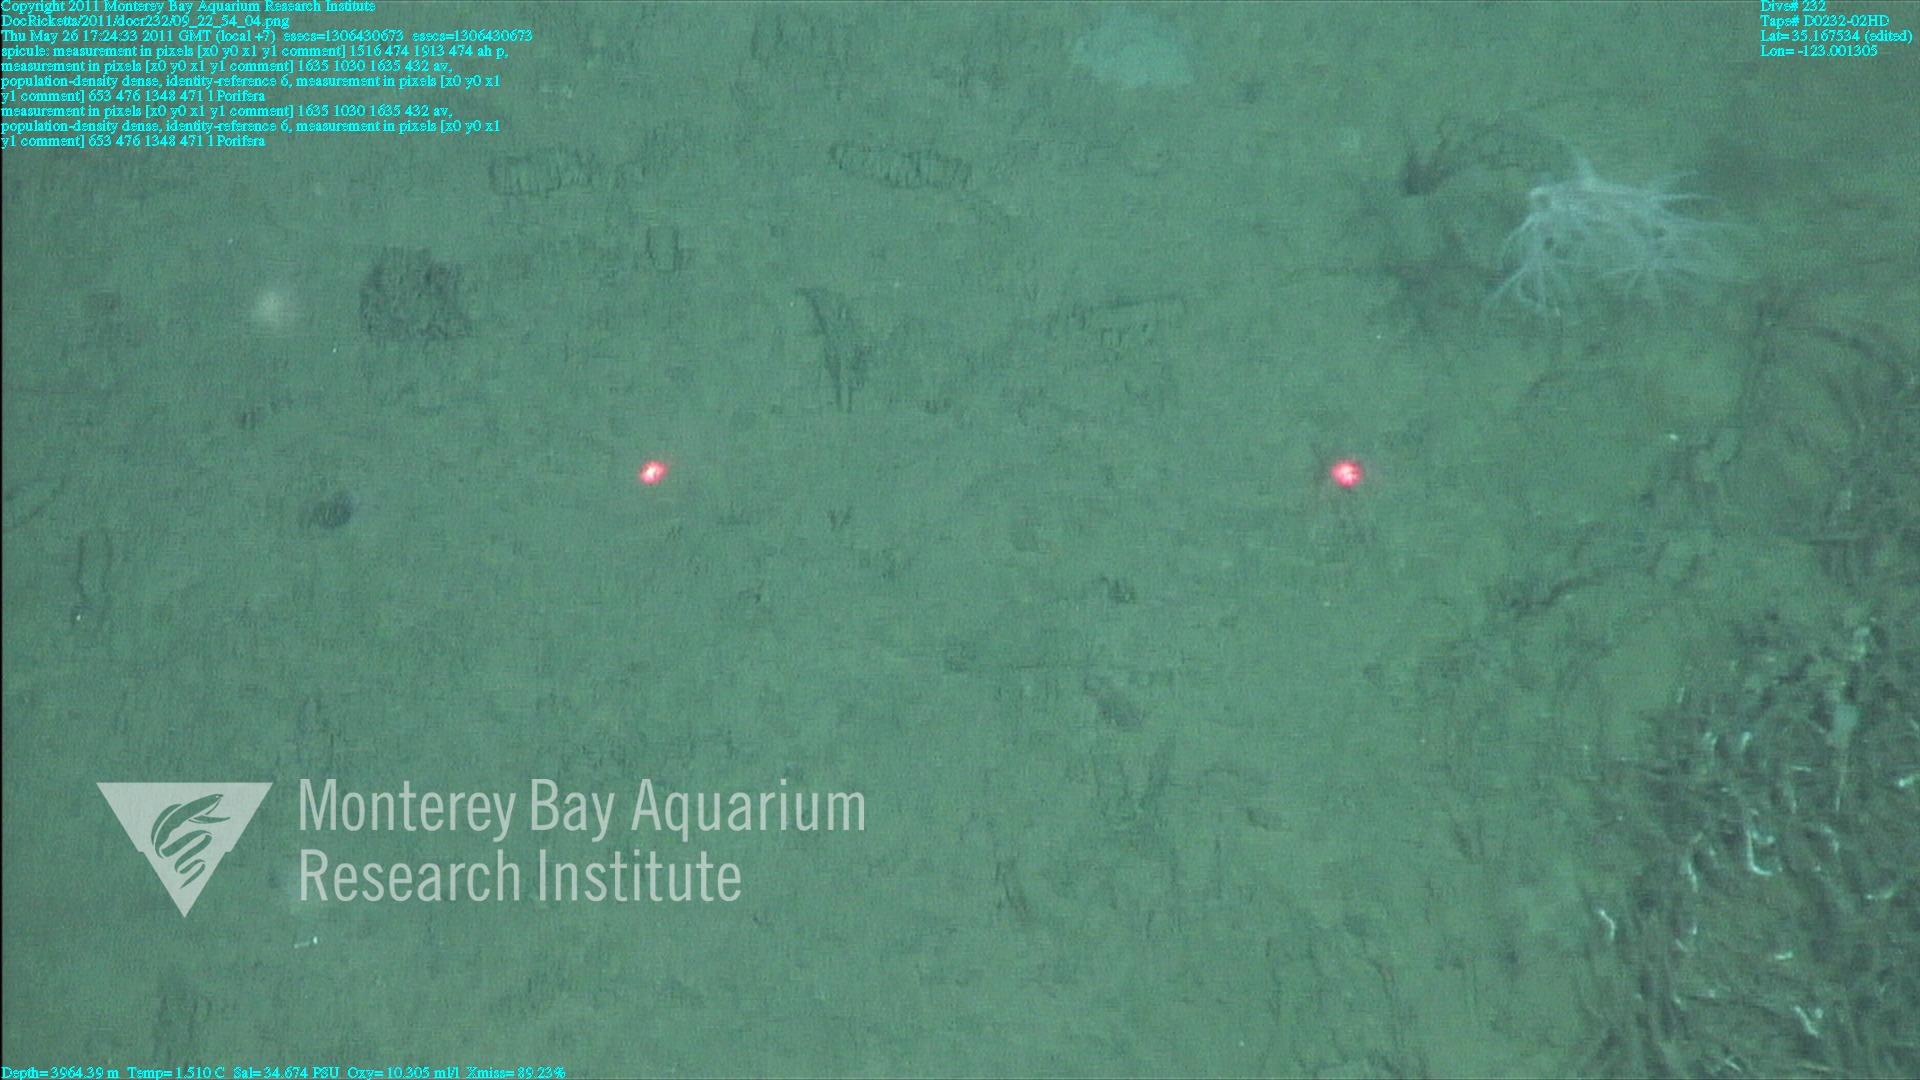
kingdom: Animalia
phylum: Porifera
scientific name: Porifera
